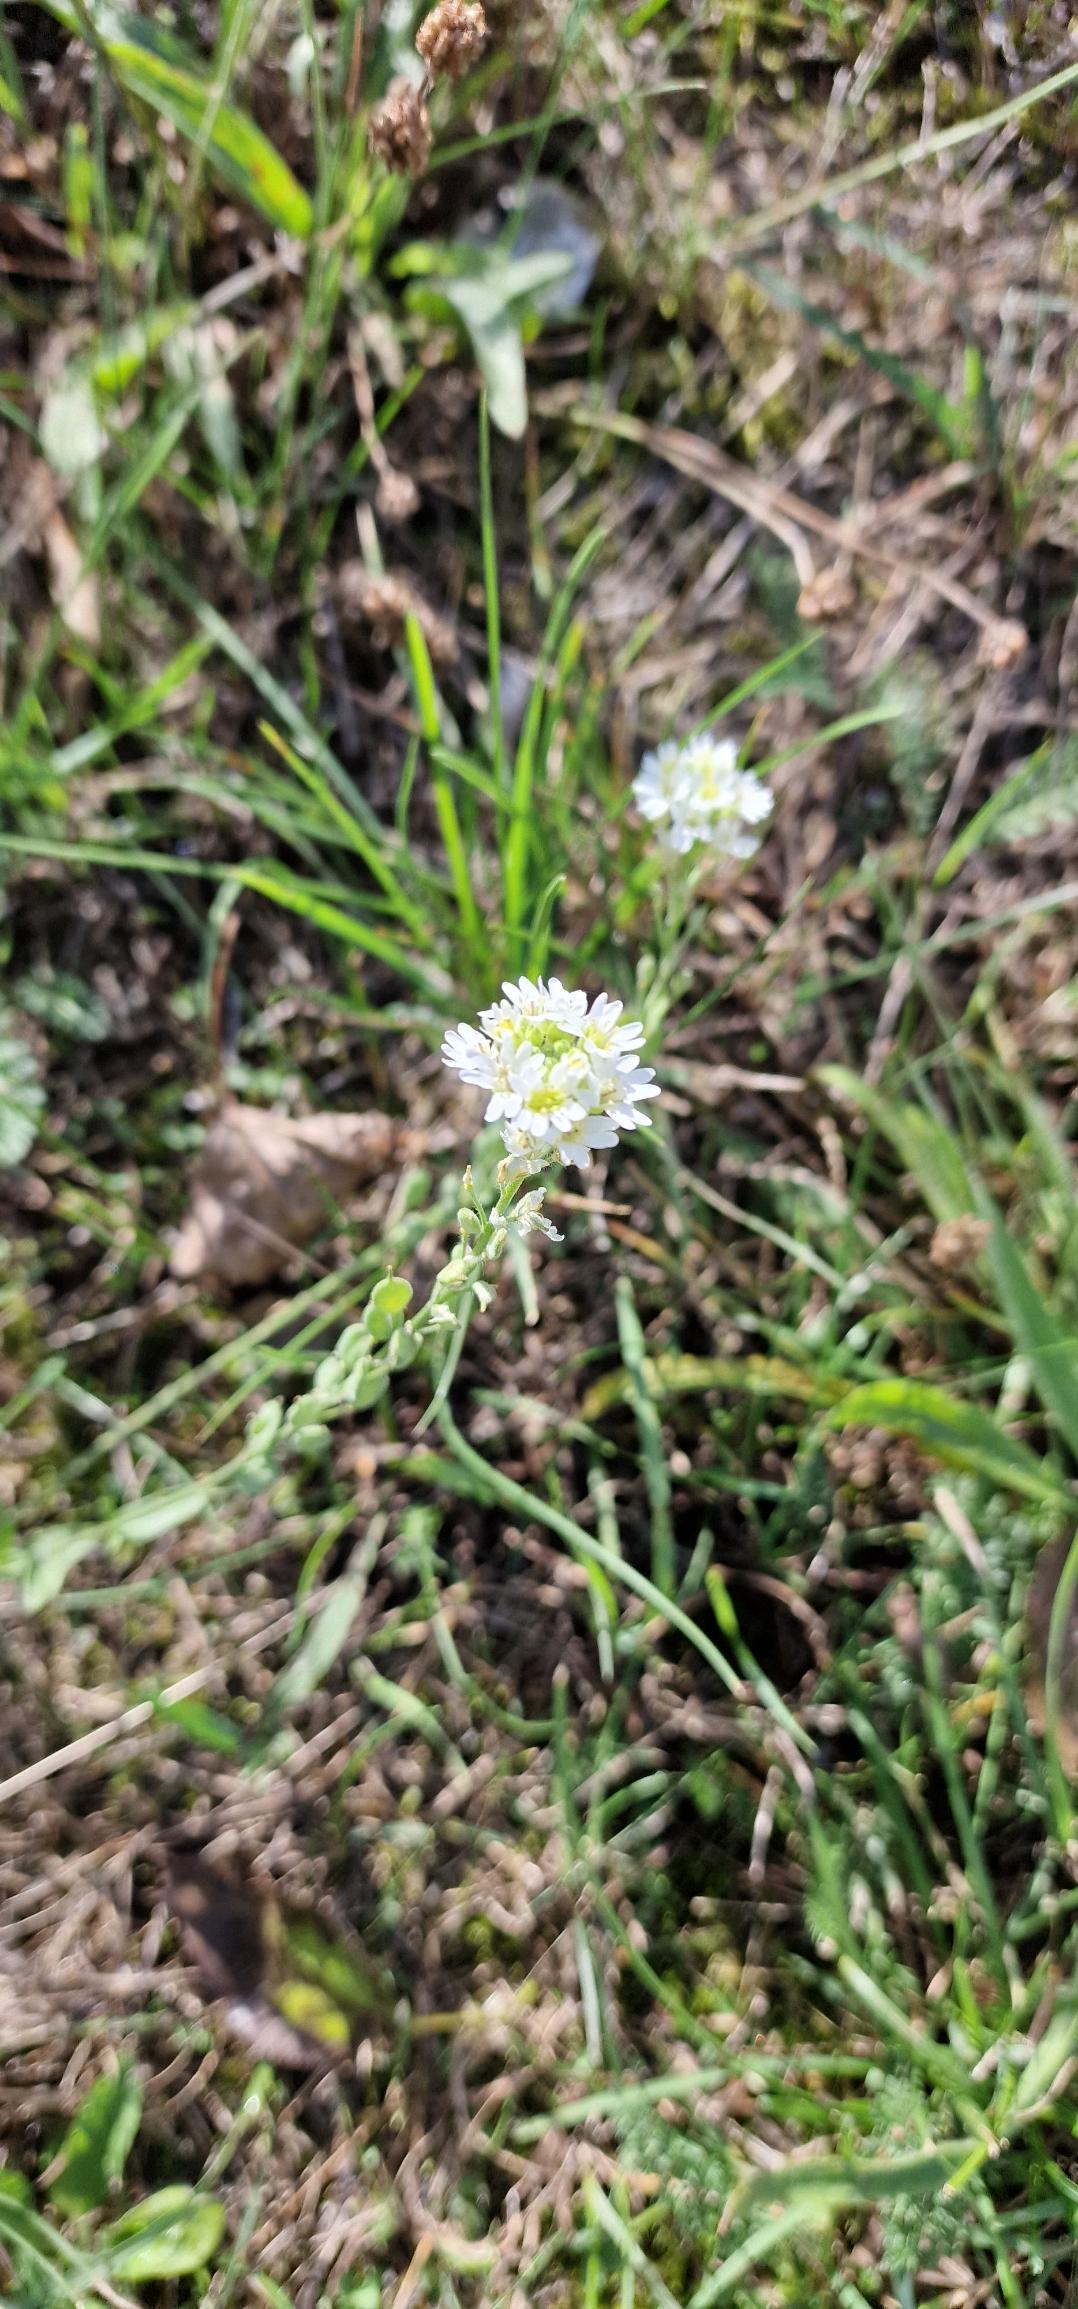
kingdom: Plantae
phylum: Tracheophyta
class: Magnoliopsida
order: Brassicales
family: Brassicaceae
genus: Berteroa
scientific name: Berteroa incana
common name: Kløvplade
